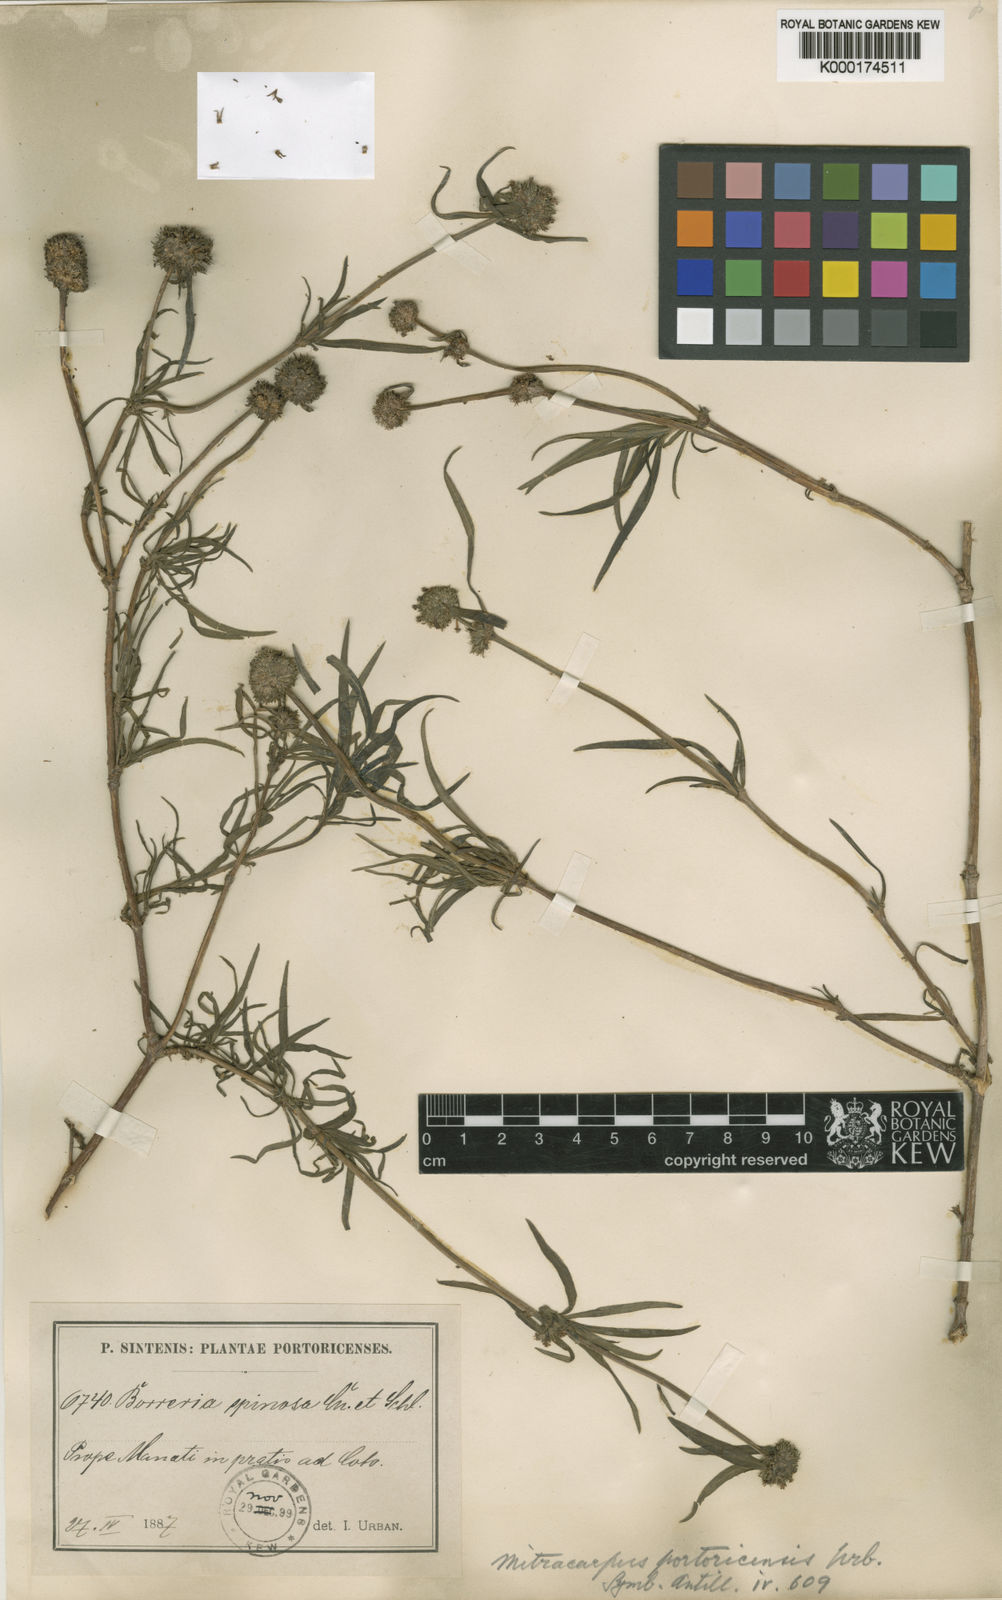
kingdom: Plantae
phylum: Tracheophyta
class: Magnoliopsida
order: Gentianales
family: Rubiaceae
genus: Mitracarpus
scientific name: Mitracarpus portoricensis
